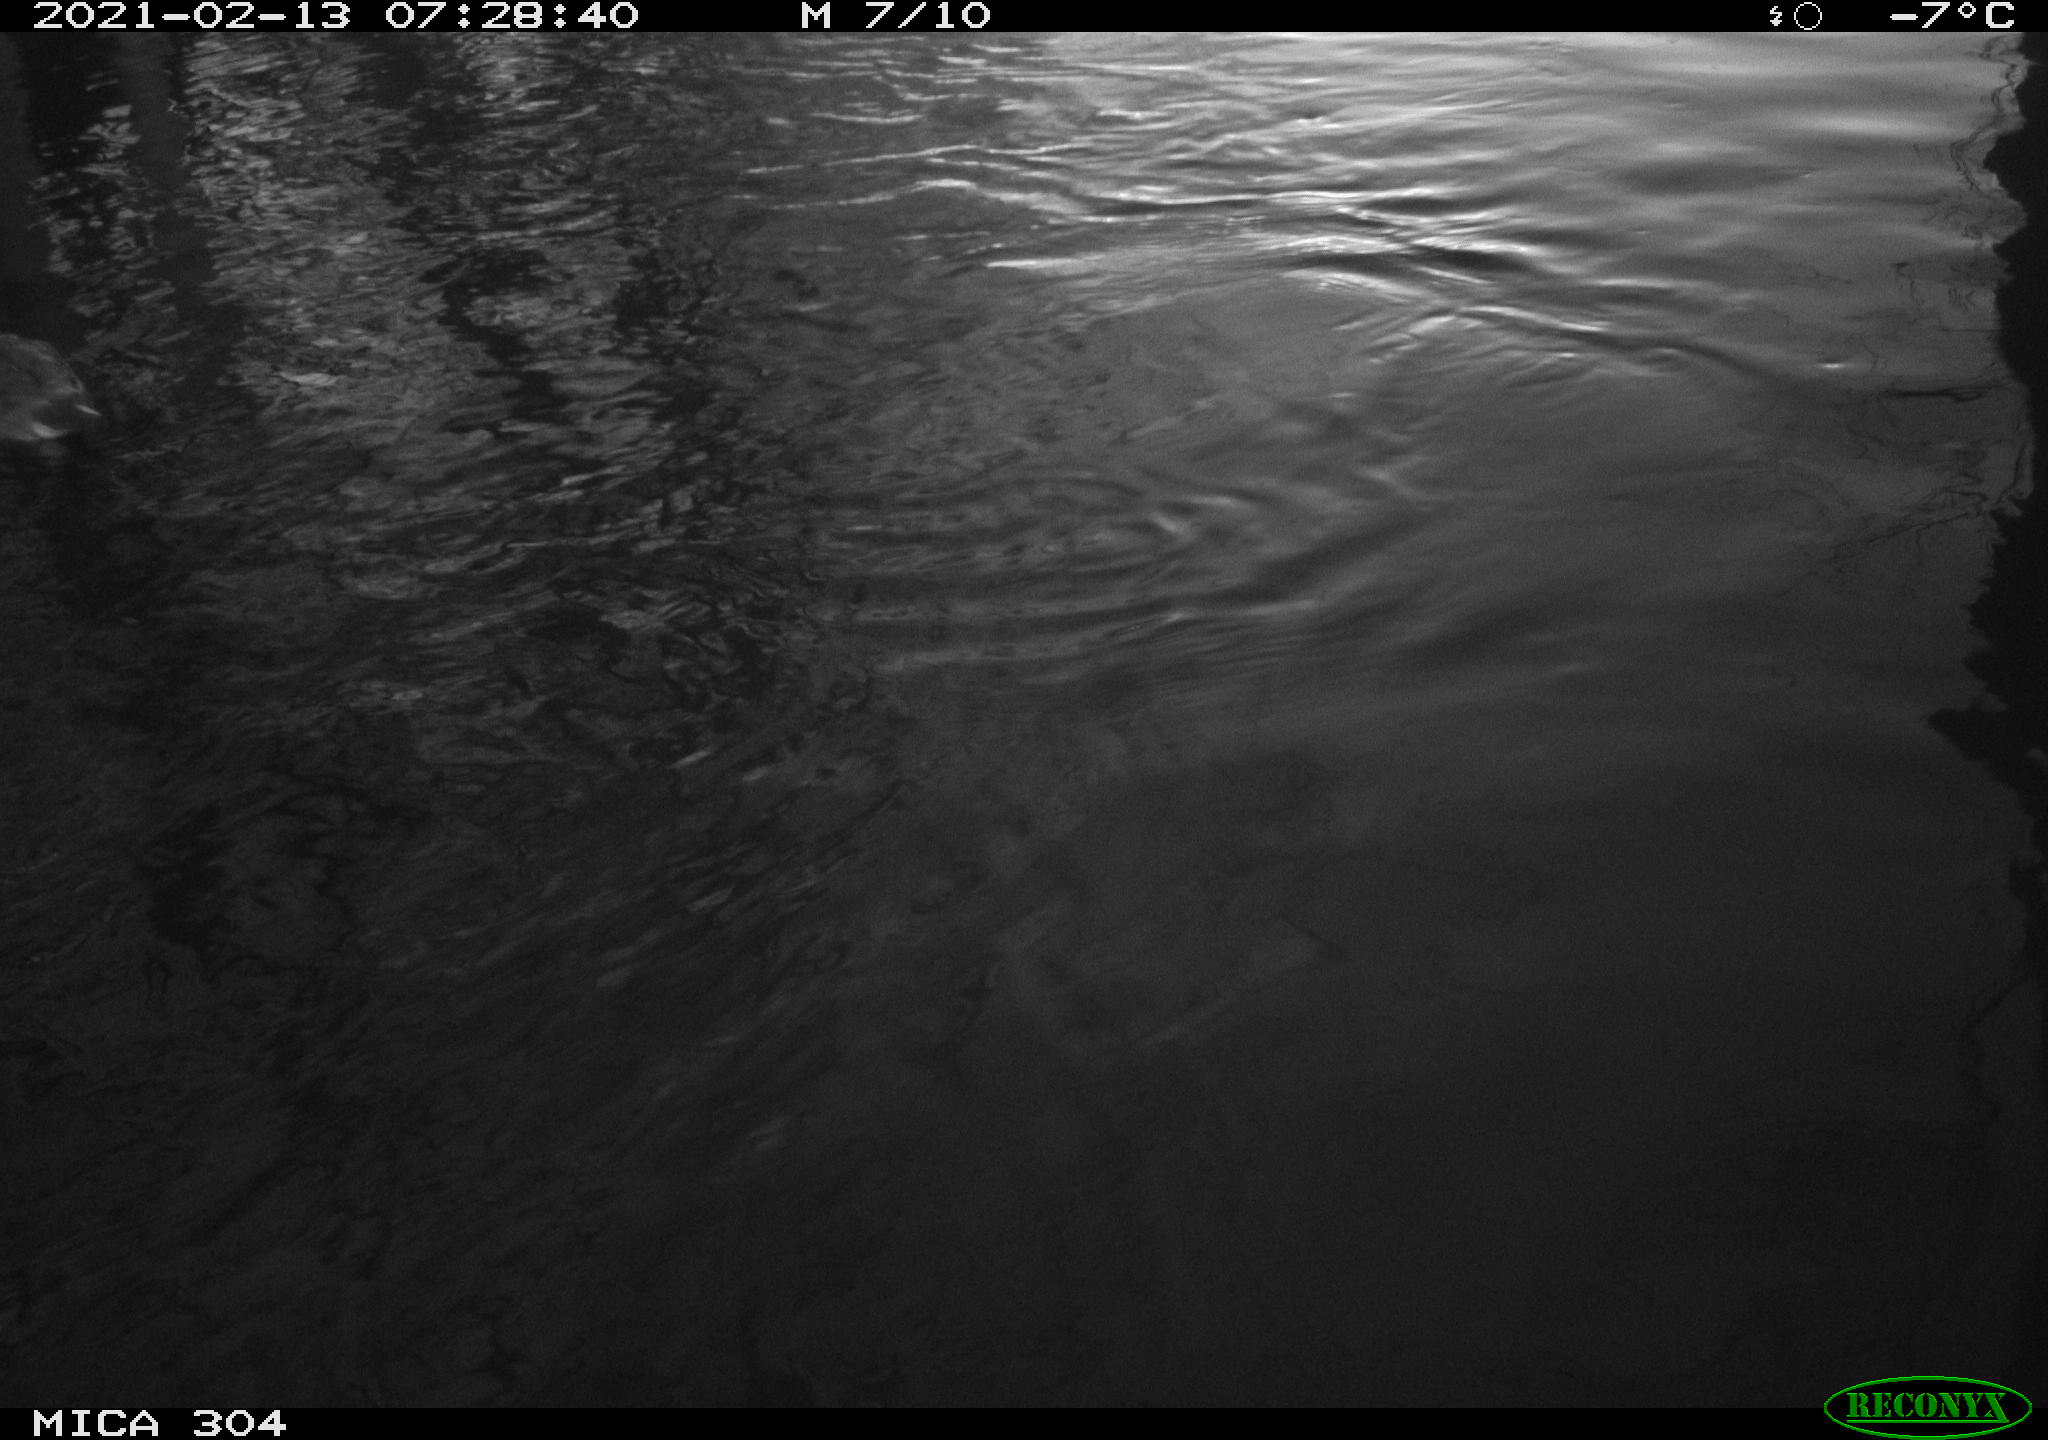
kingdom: Animalia
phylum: Chordata
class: Aves
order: Gruiformes
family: Rallidae
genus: Gallinula
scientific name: Gallinula chloropus
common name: Common moorhen
